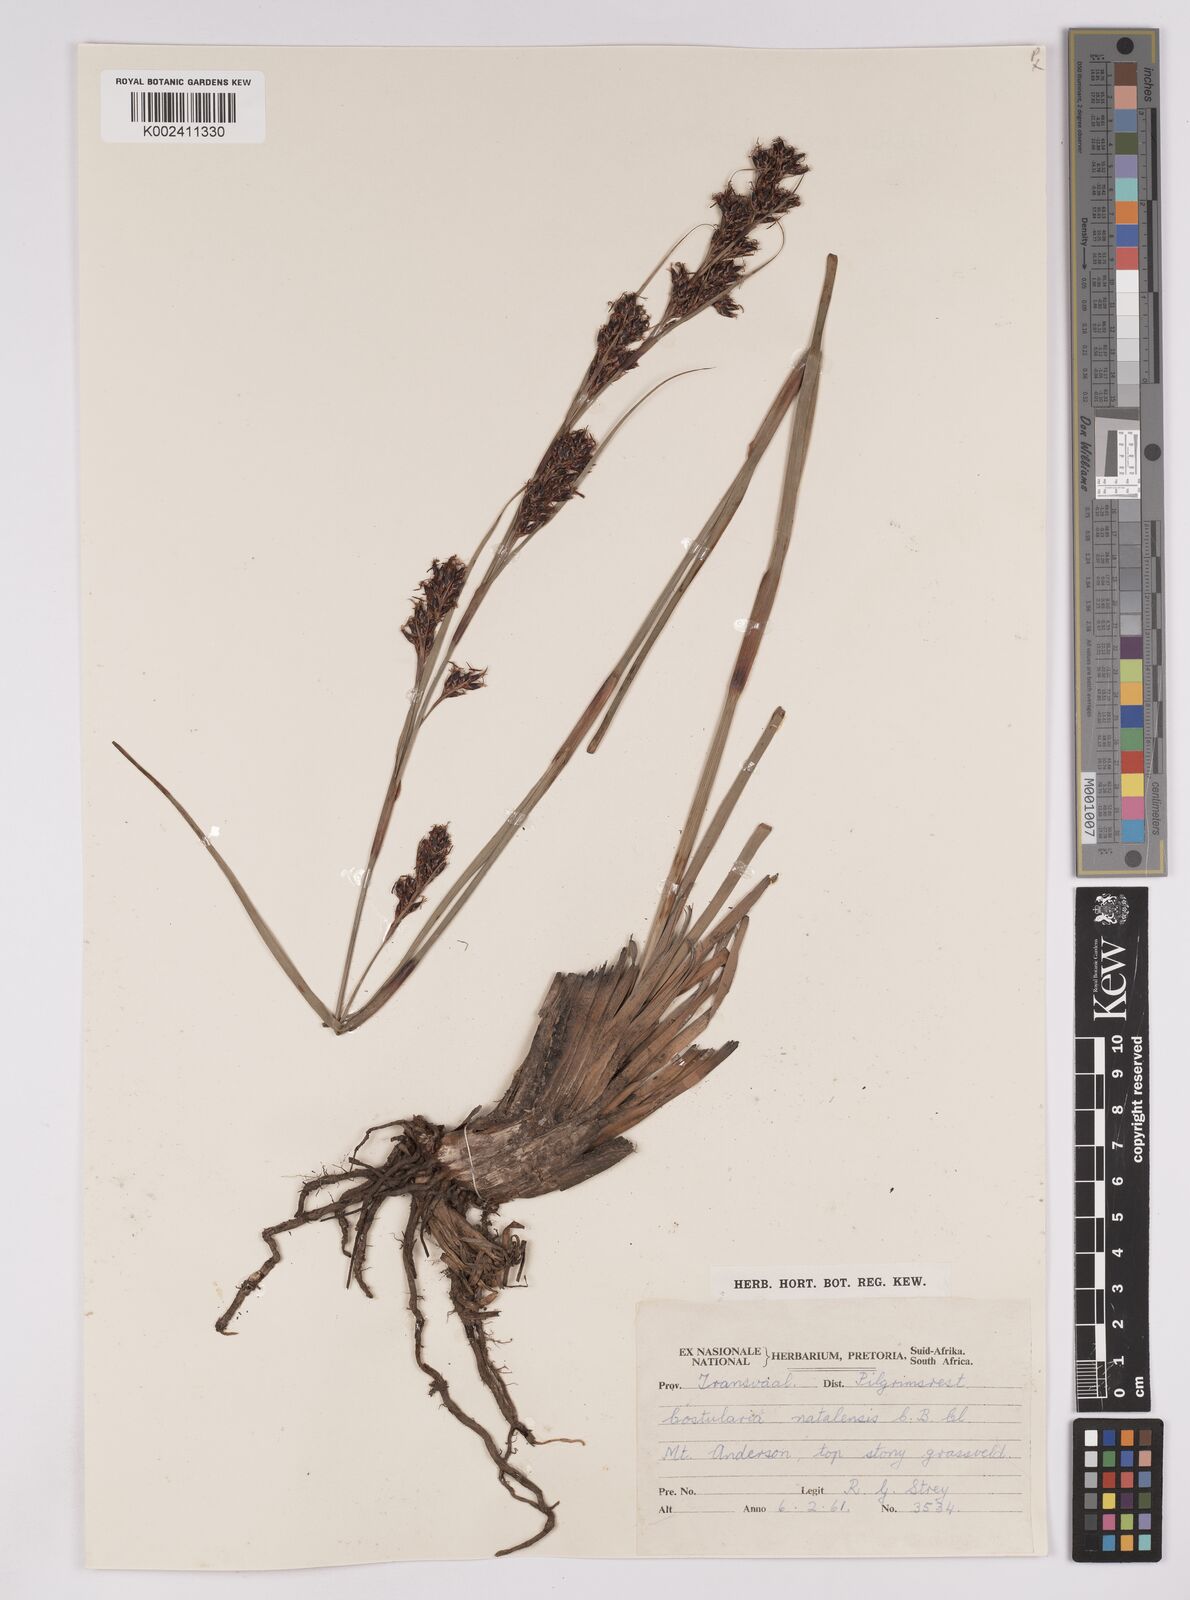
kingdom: Plantae
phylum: Tracheophyta
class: Liliopsida
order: Poales
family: Cyperaceae
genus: Costularia
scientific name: Costularia natalensis
